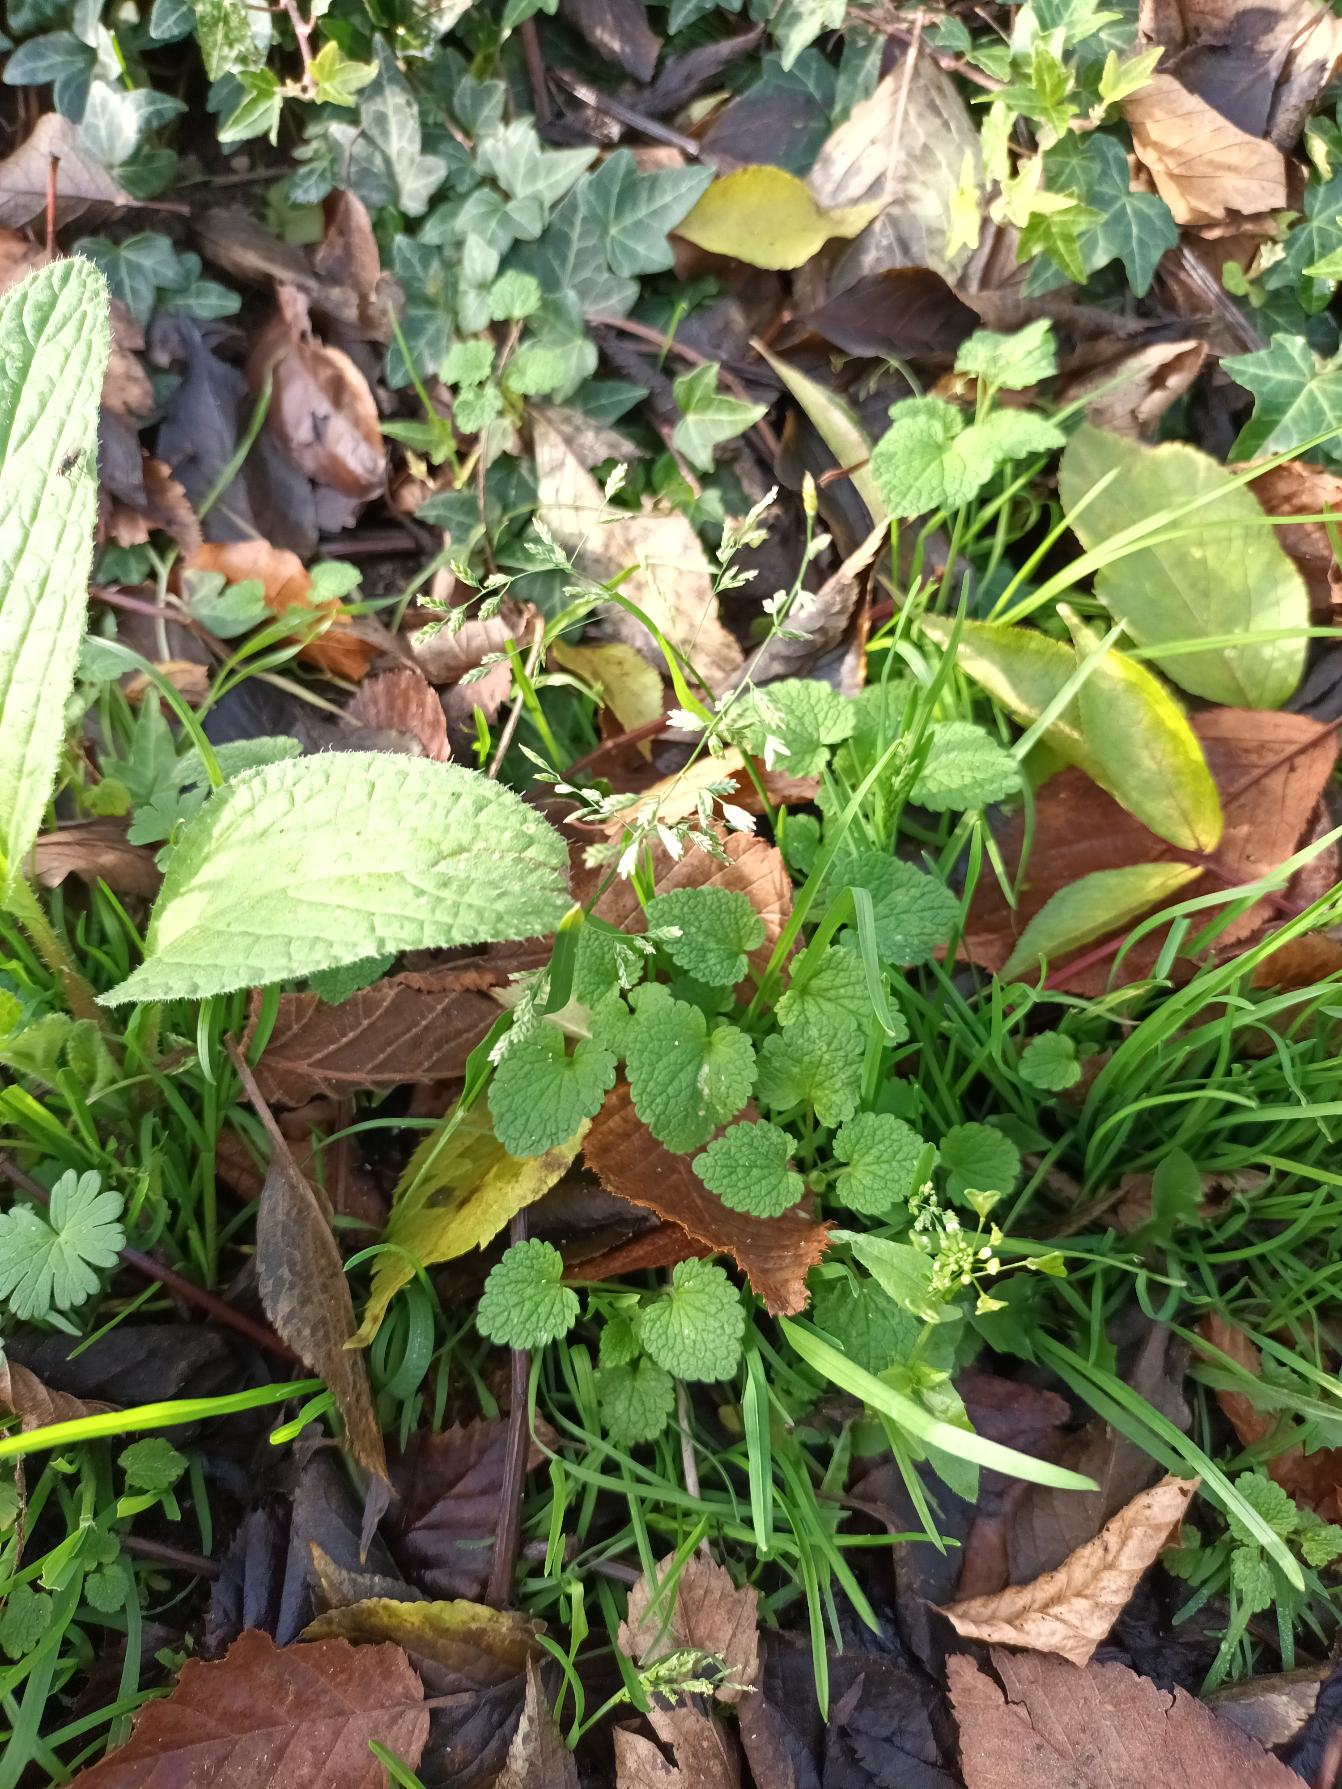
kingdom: Plantae
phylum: Tracheophyta
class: Liliopsida
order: Poales
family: Poaceae
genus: Poa
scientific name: Poa annua
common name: Enårig rapgræs
